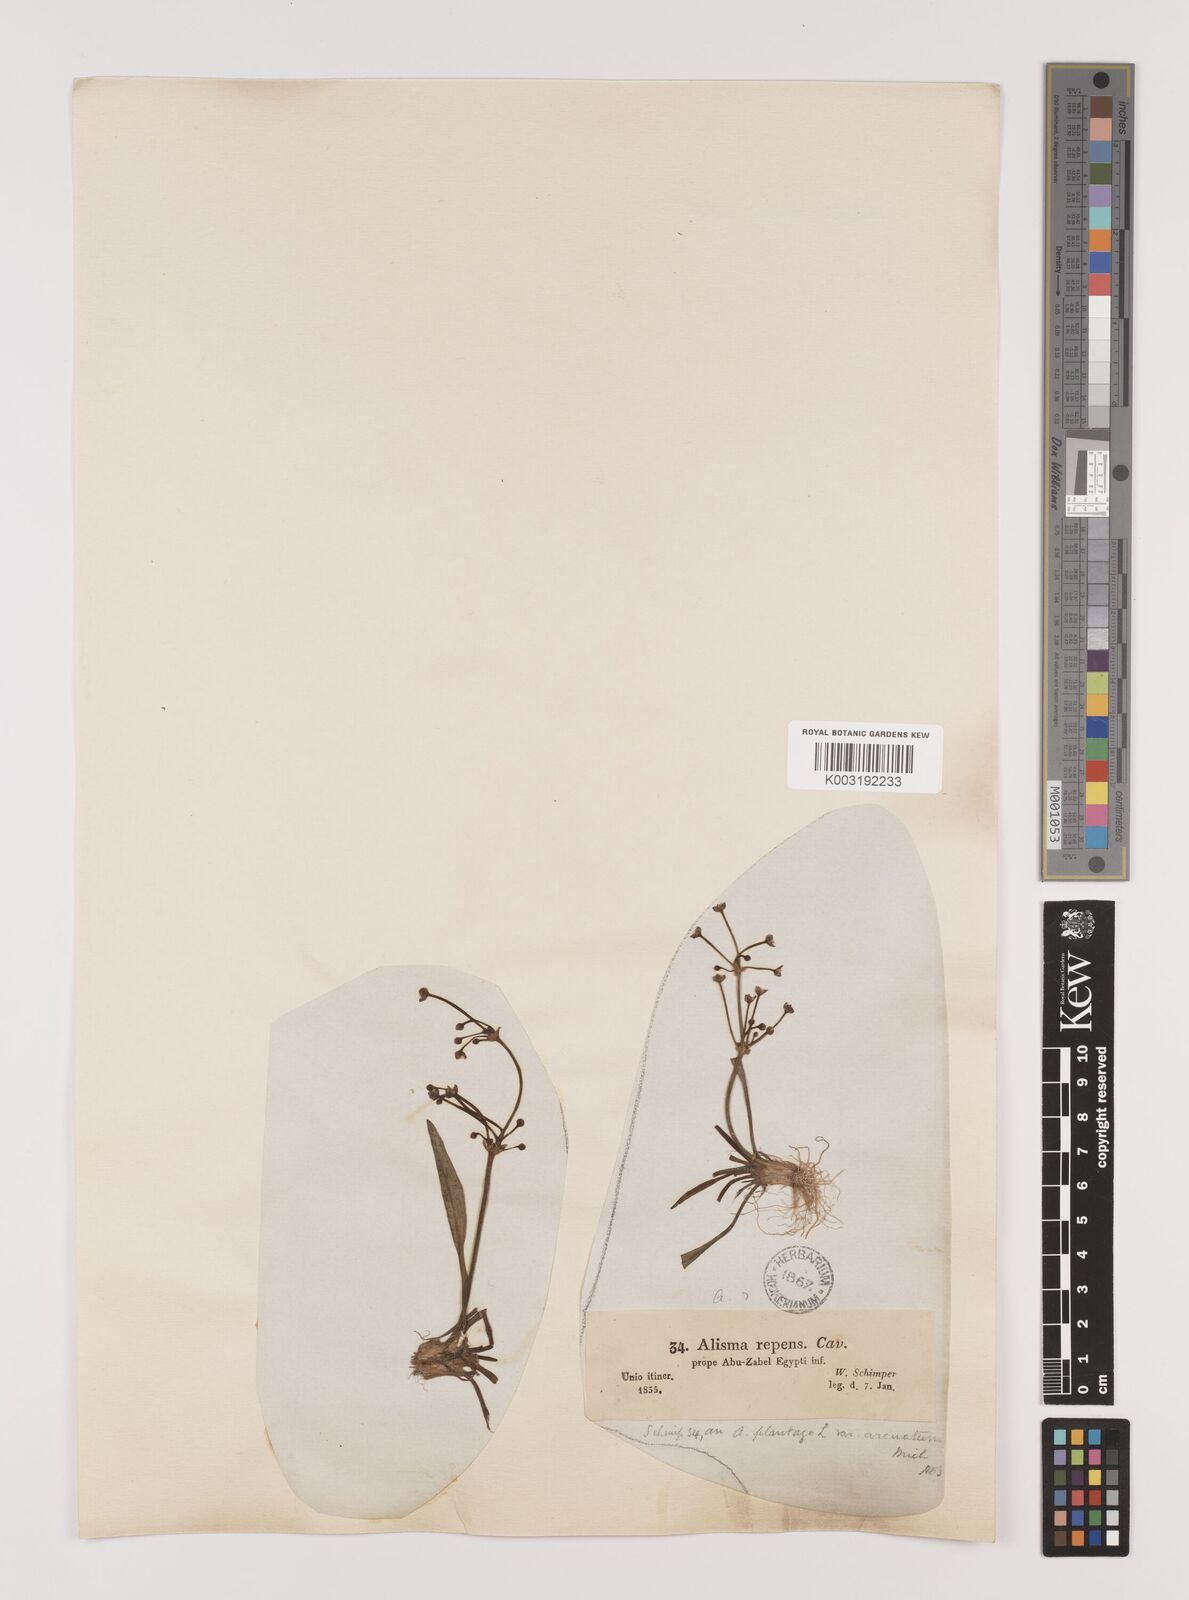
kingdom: Plantae
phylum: Tracheophyta
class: Liliopsida
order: Alismatales
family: Alismataceae
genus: Alisma
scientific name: Alisma gramineum
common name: Ribbon-leaved water-plantain
